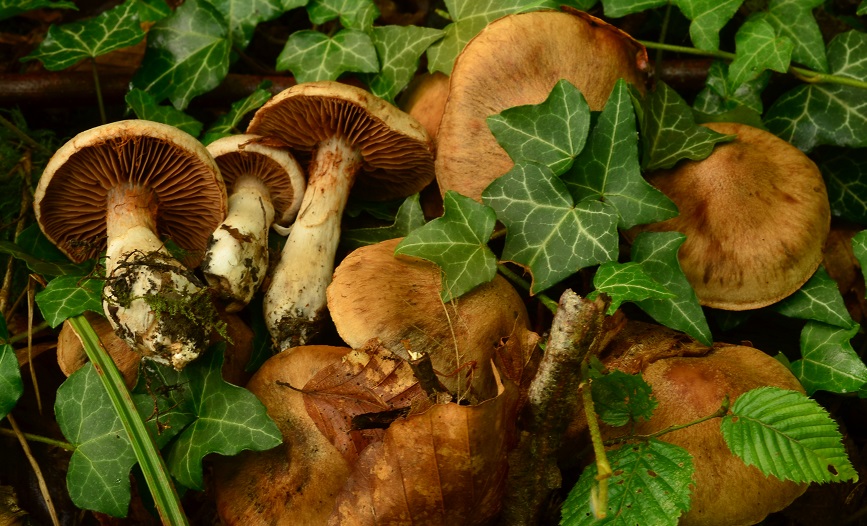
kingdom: Fungi
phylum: Basidiomycota
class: Agaricomycetes
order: Agaricales
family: Cortinariaceae
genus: Cortinarius
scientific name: Cortinarius hillieri
